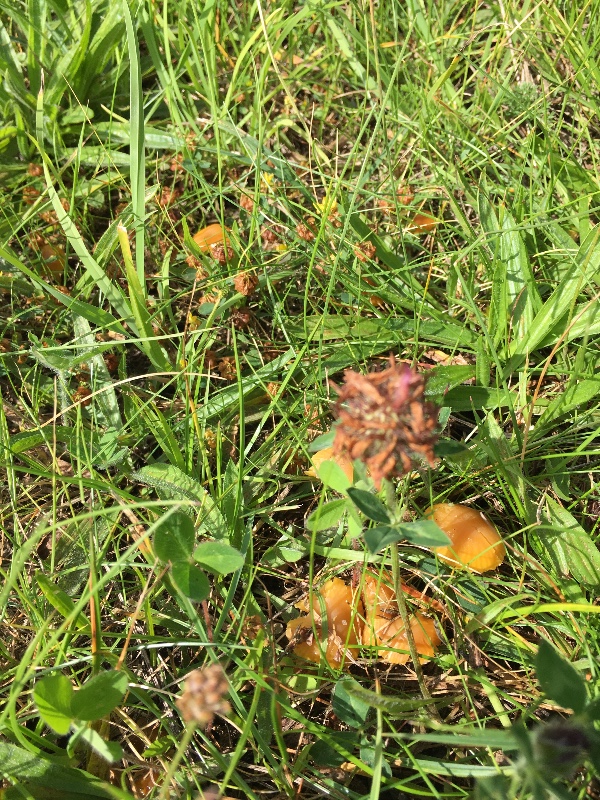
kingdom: Fungi
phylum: Basidiomycota
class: Agaricomycetes
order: Agaricales
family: Hygrophoraceae
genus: Hygrocybe
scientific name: Hygrocybe chlorophana
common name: gul vokshat
